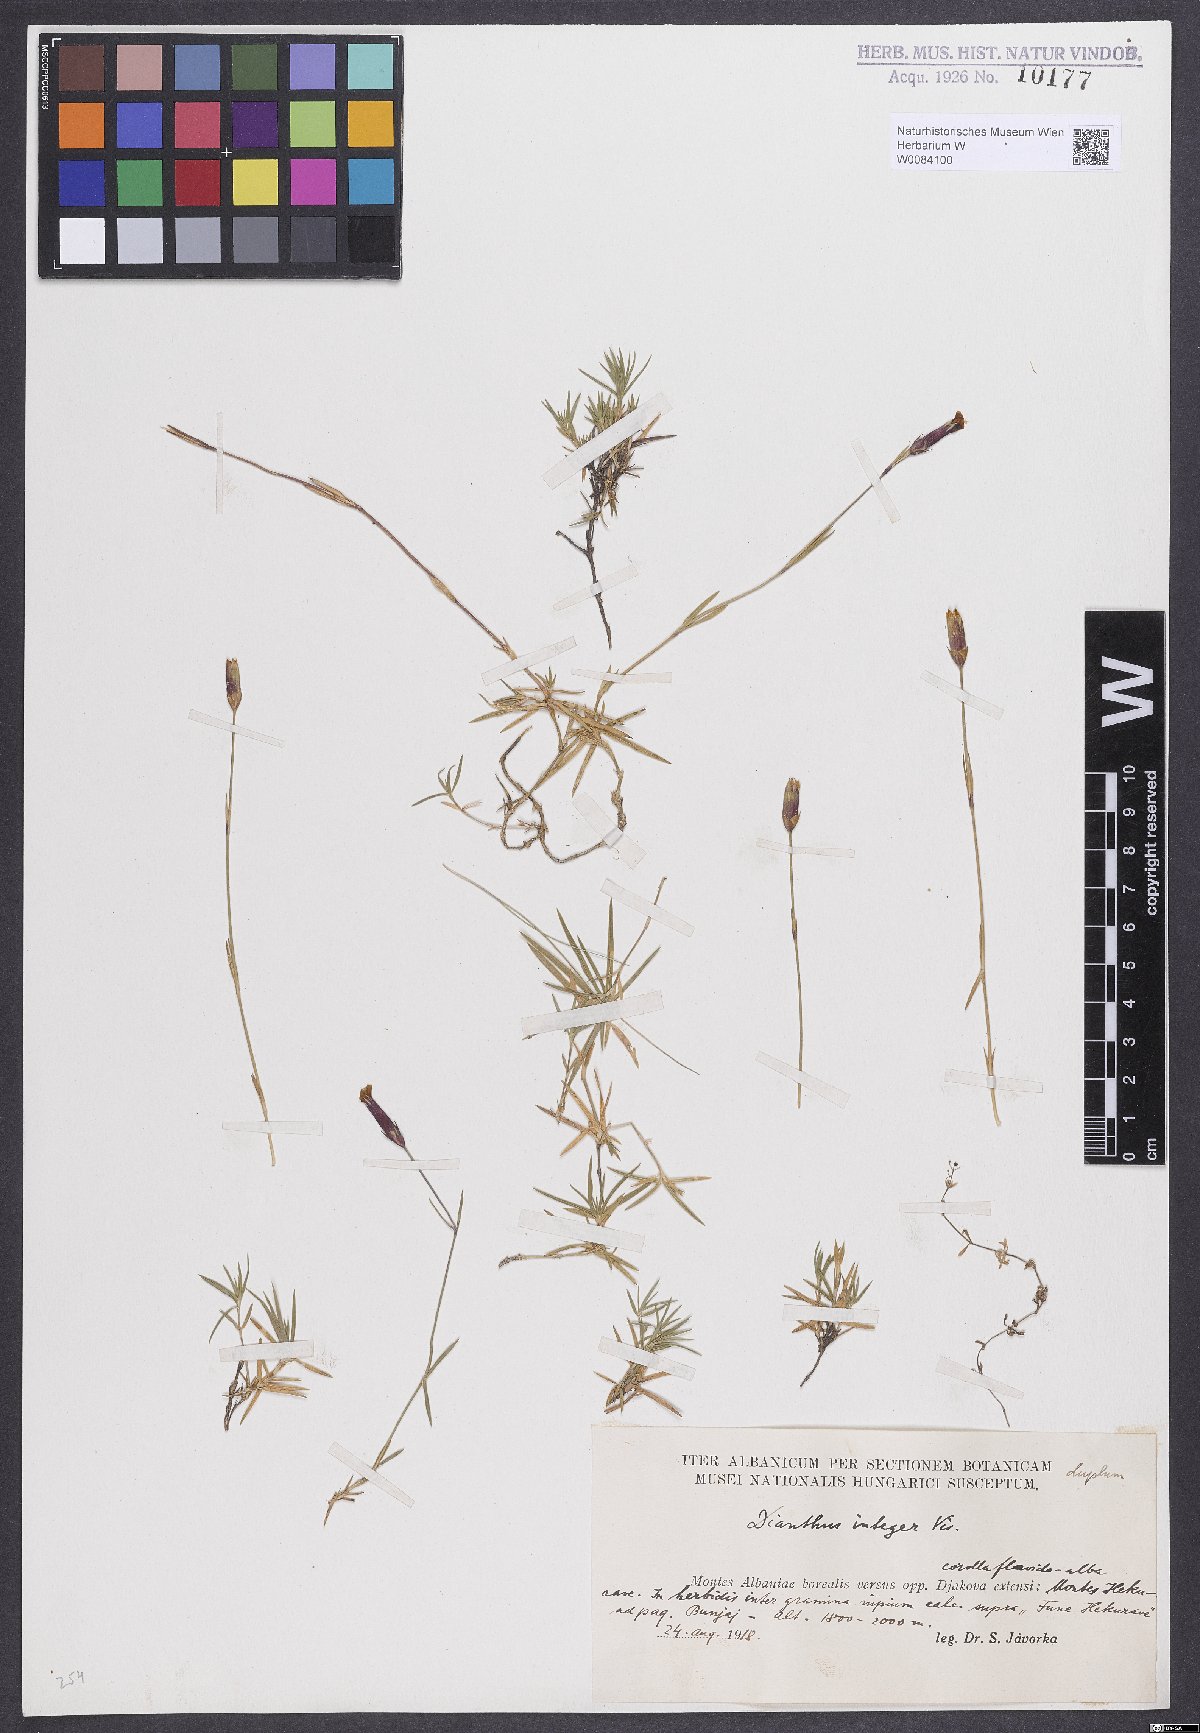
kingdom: Plantae
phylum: Tracheophyta
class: Magnoliopsida
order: Caryophyllales
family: Caryophyllaceae
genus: Dianthus
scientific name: Dianthus integer
